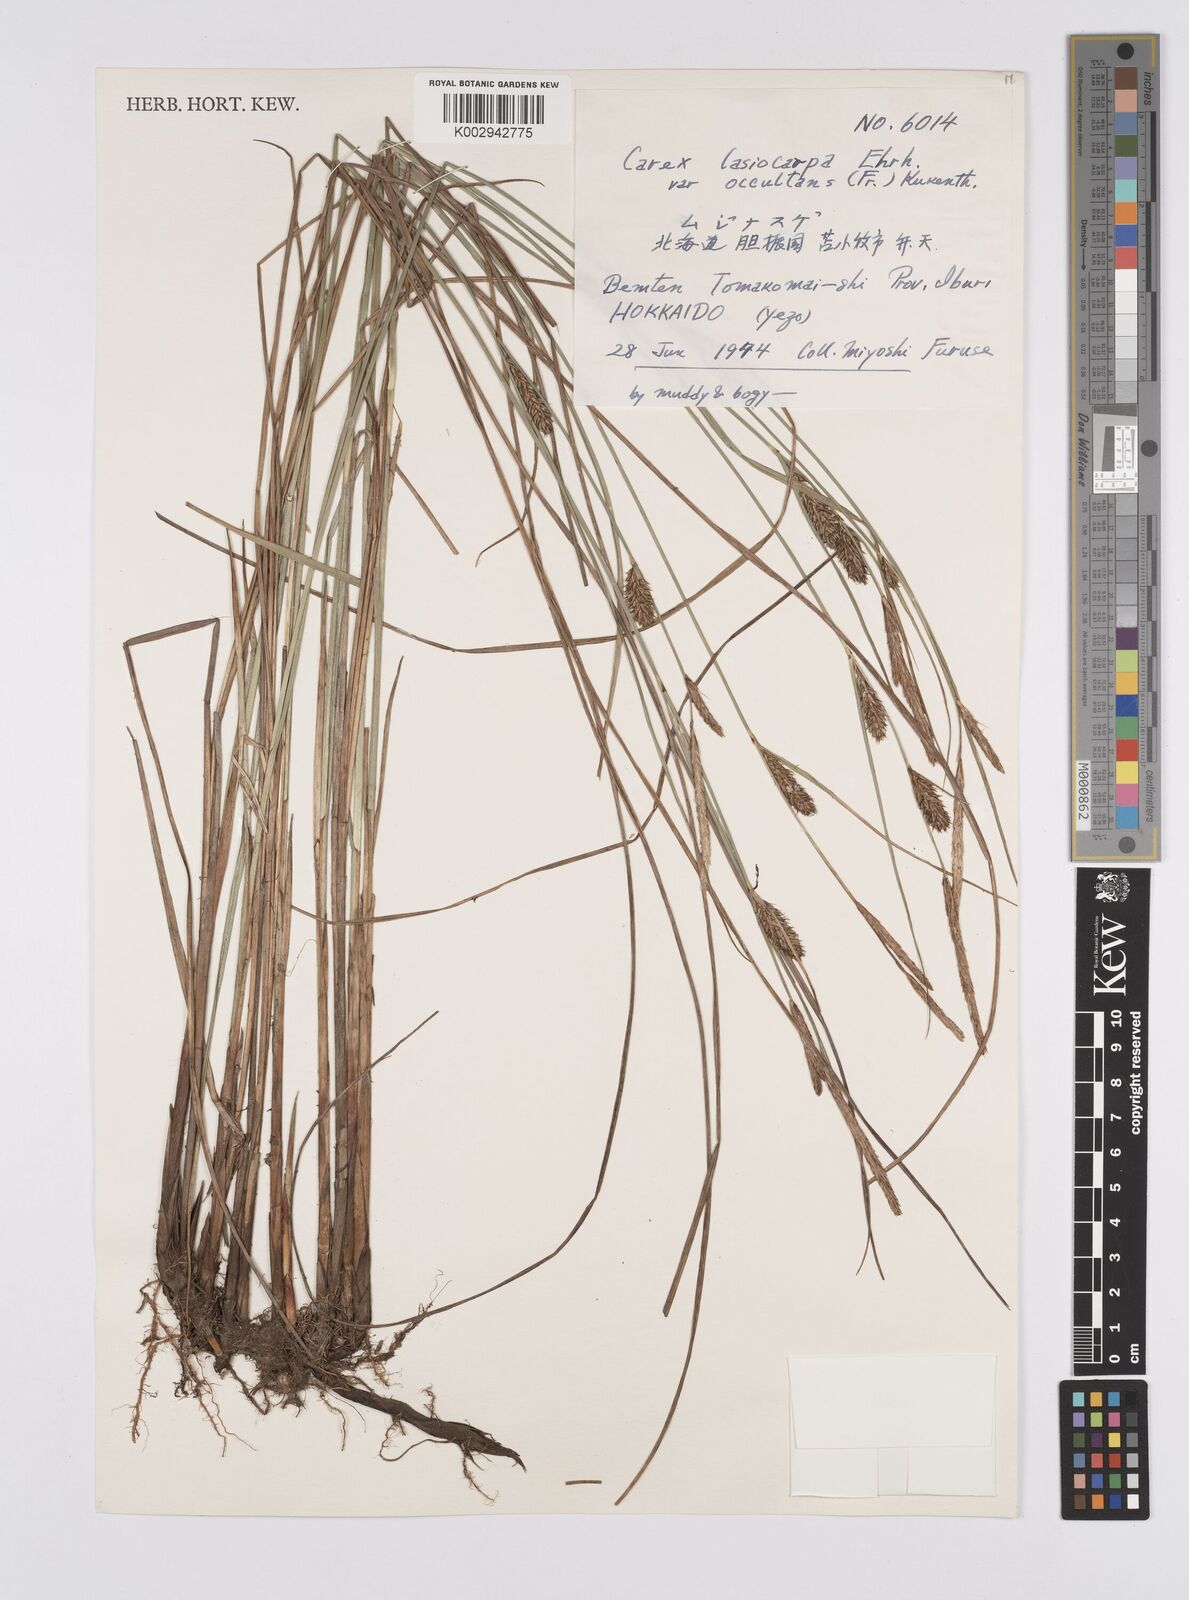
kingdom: Plantae
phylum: Tracheophyta
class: Liliopsida
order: Poales
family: Cyperaceae
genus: Carex
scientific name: Carex lasiocarpa
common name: Slender sedge
